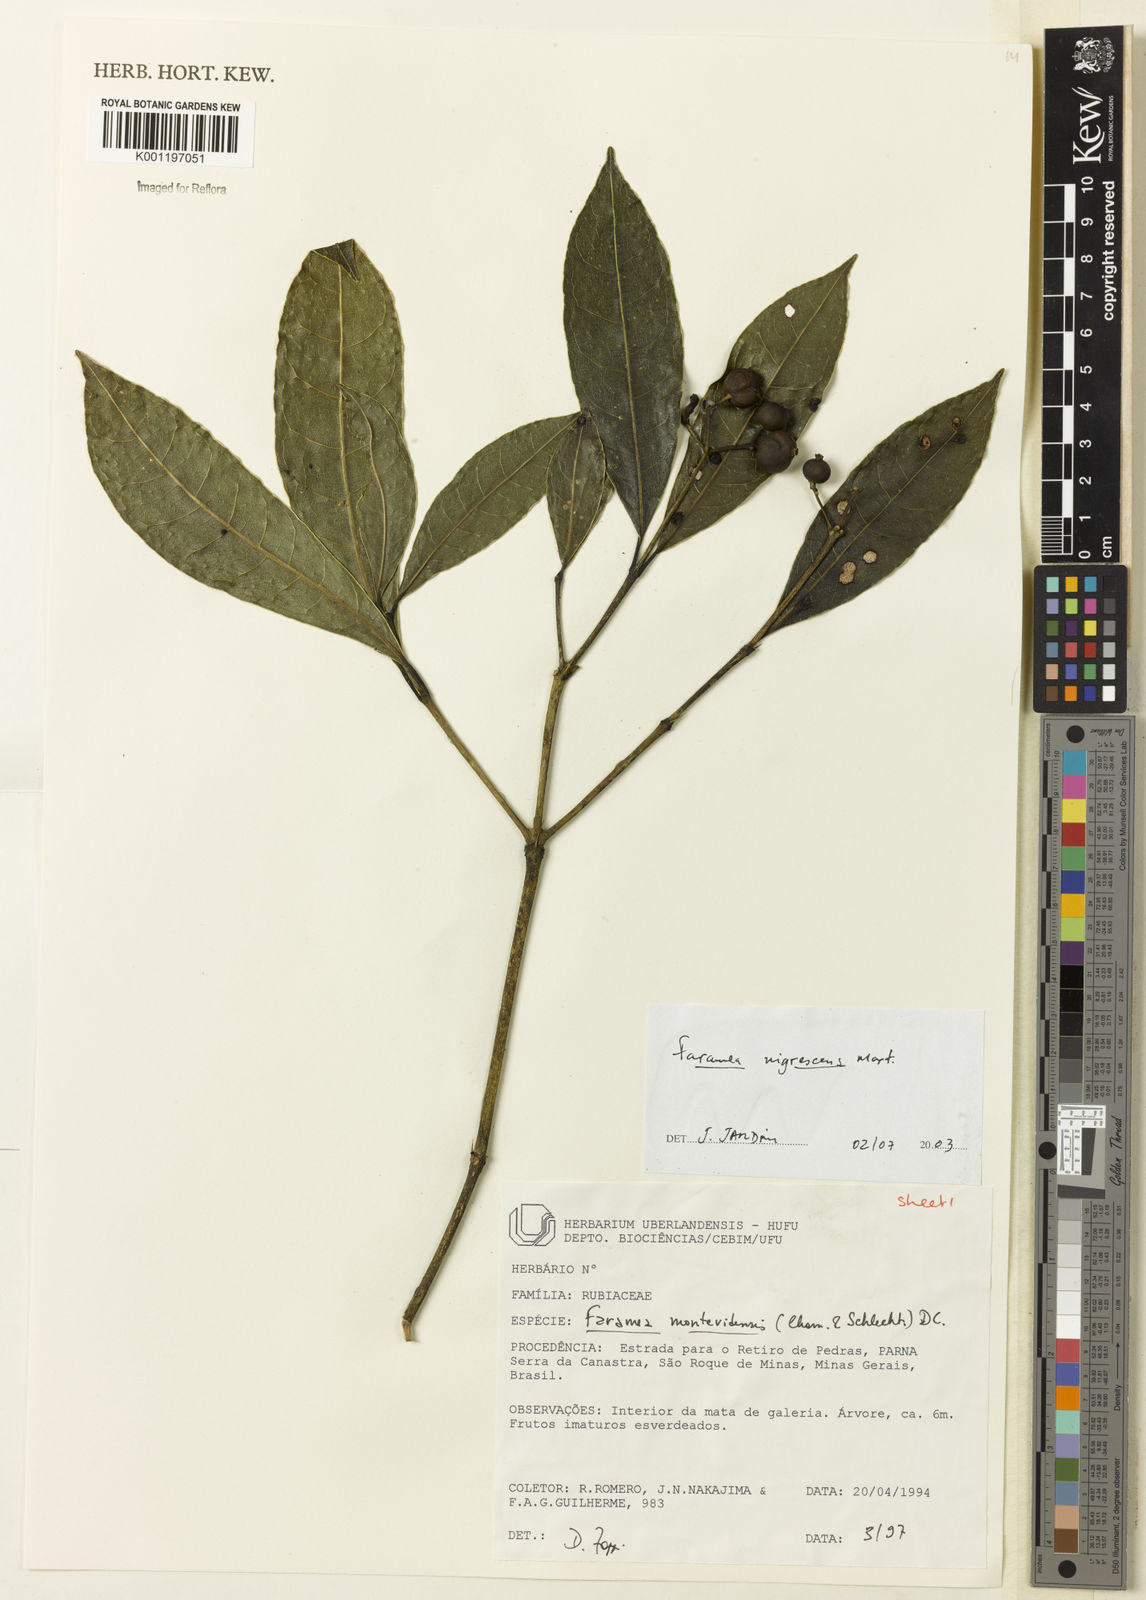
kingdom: Plantae
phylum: Tracheophyta
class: Magnoliopsida
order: Gentianales
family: Rubiaceae
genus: Faramea
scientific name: Faramea nigrescens
